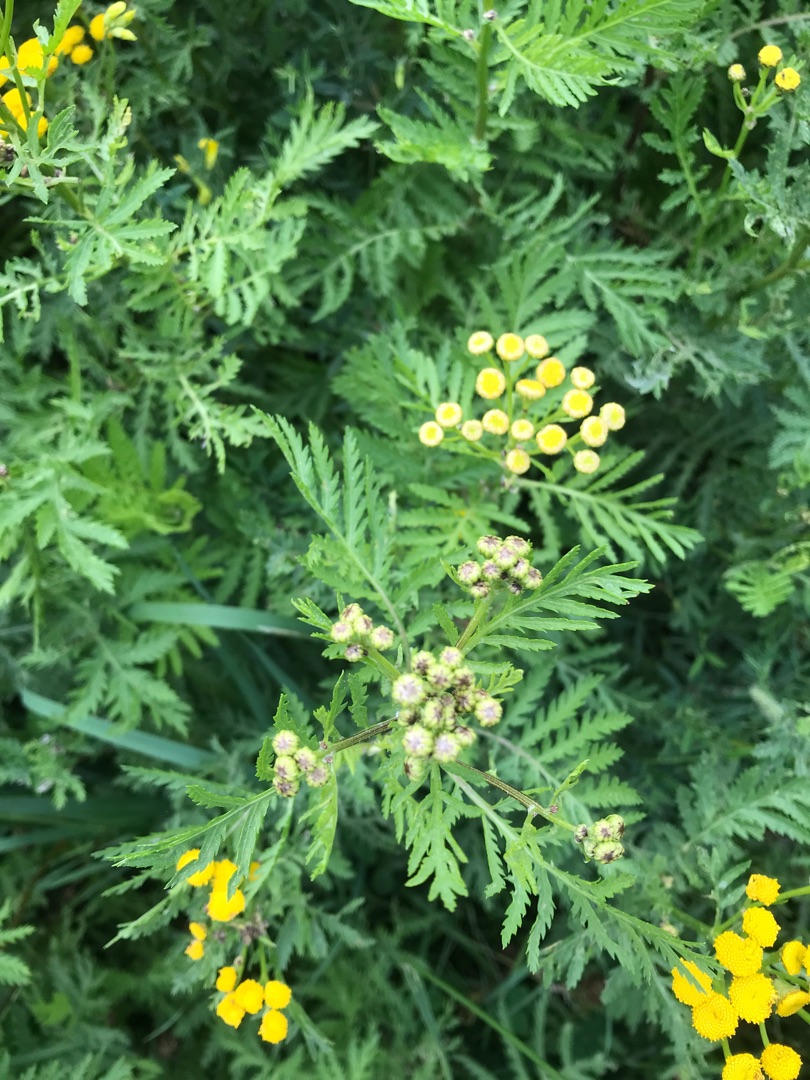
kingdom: Plantae
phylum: Tracheophyta
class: Magnoliopsida
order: Asterales
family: Asteraceae
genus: Tanacetum
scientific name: Tanacetum vulgare
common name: Rejnfan
